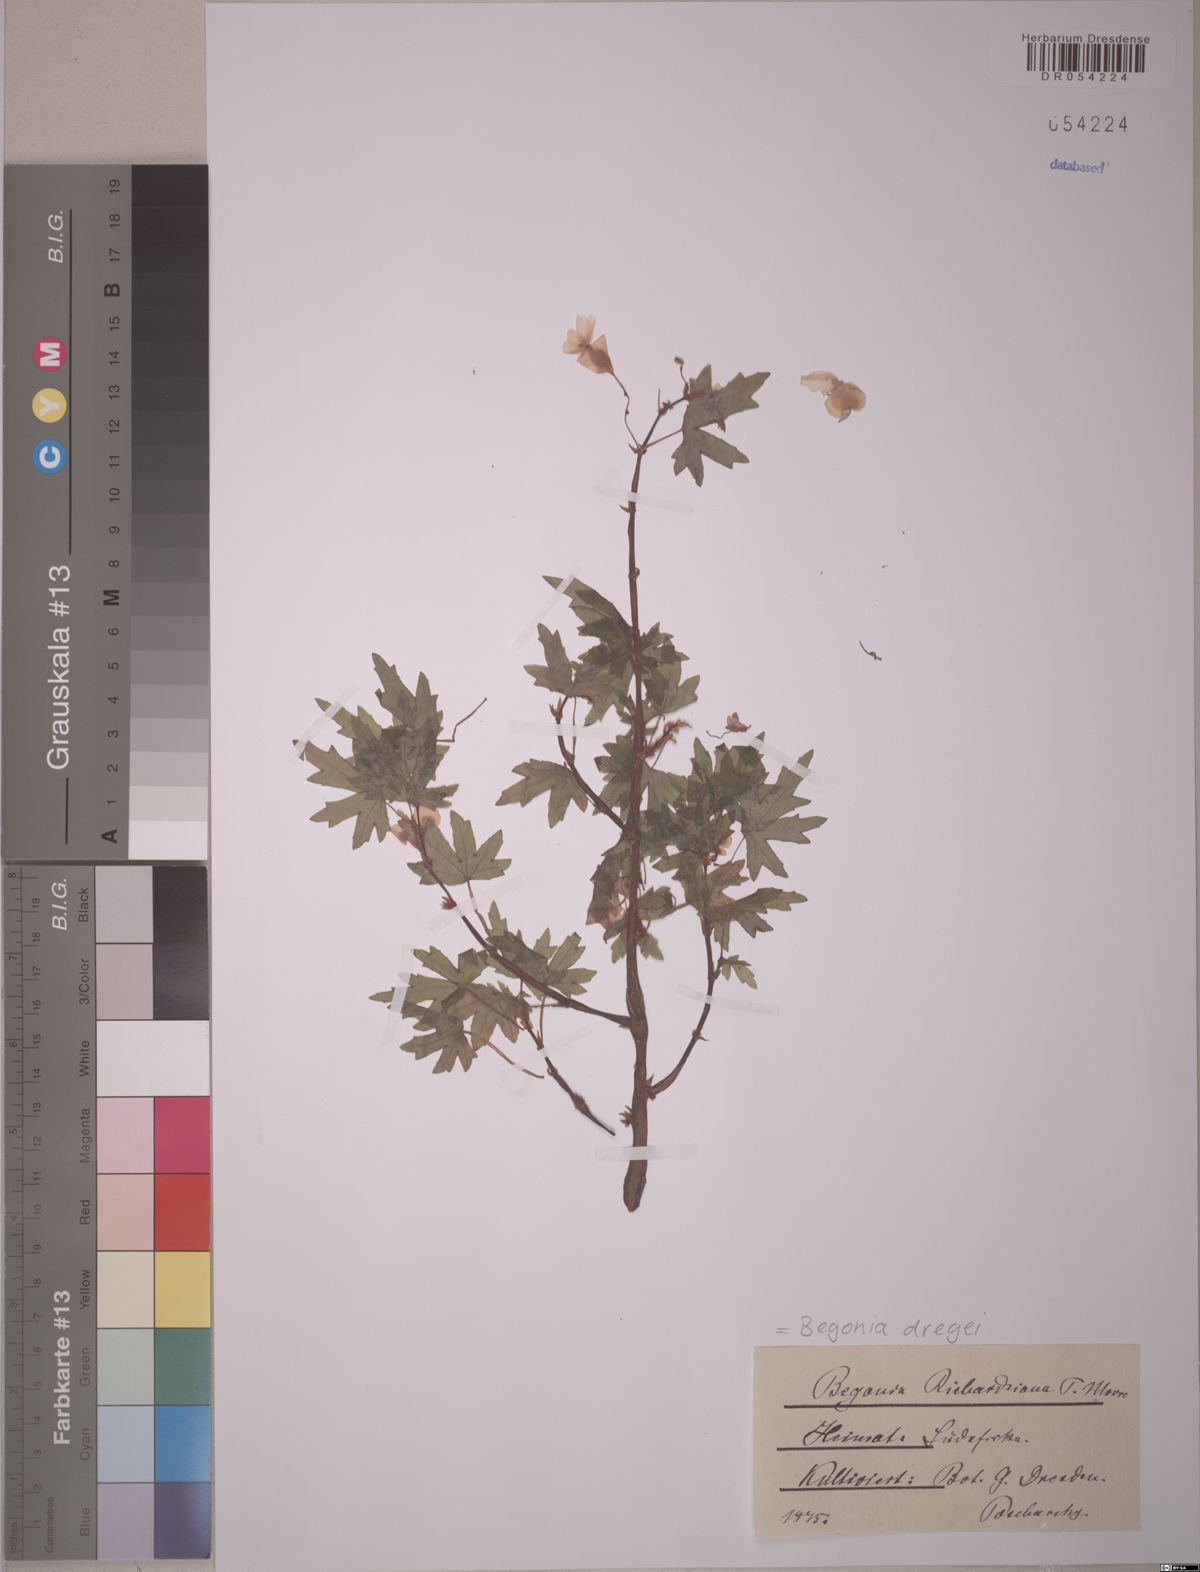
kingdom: Plantae
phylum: Tracheophyta
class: Magnoliopsida
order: Cucurbitales
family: Begoniaceae
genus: Begonia
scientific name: Begonia dregei
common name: Grape-leaf begonia
